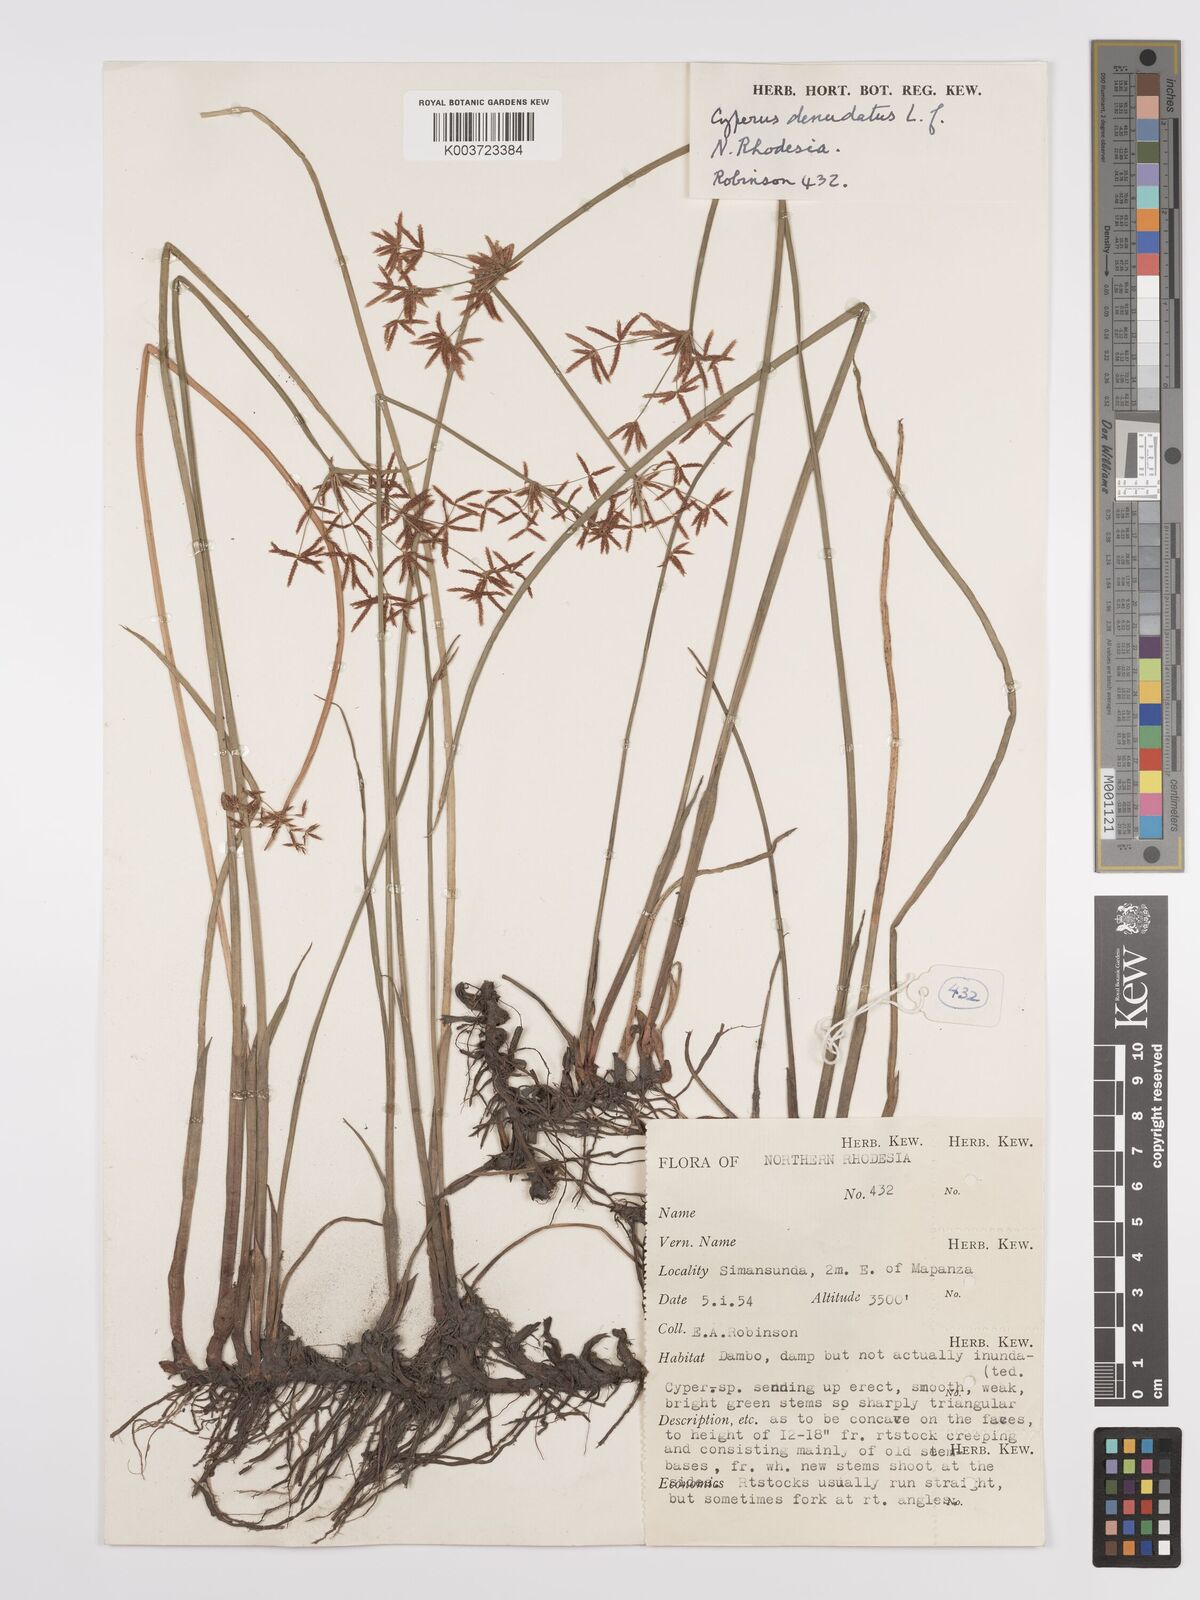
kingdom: Plantae
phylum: Tracheophyta
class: Liliopsida
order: Poales
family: Cyperaceae
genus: Cyperus
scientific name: Cyperus denudatus
